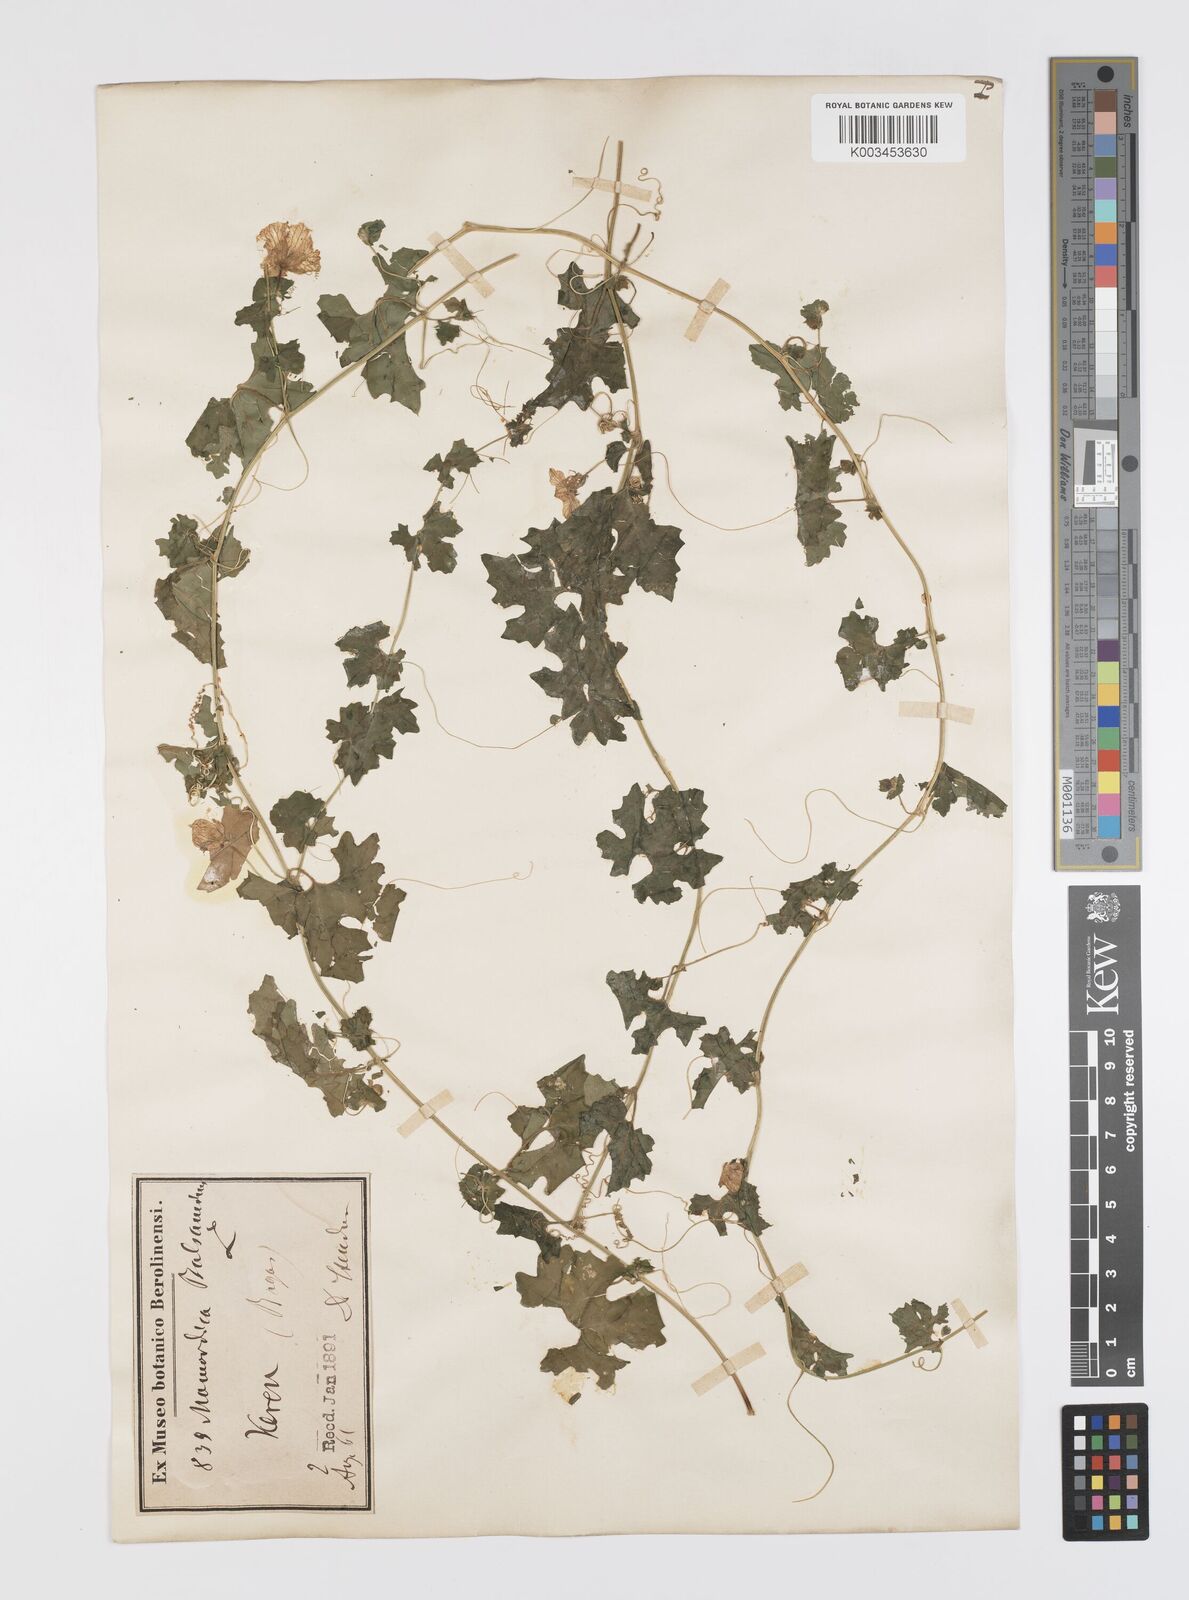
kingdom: Plantae
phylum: Tracheophyta
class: Magnoliopsida
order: Cucurbitales
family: Cucurbitaceae
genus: Momordica
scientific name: Momordica balsamina
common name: Southern balsampear
